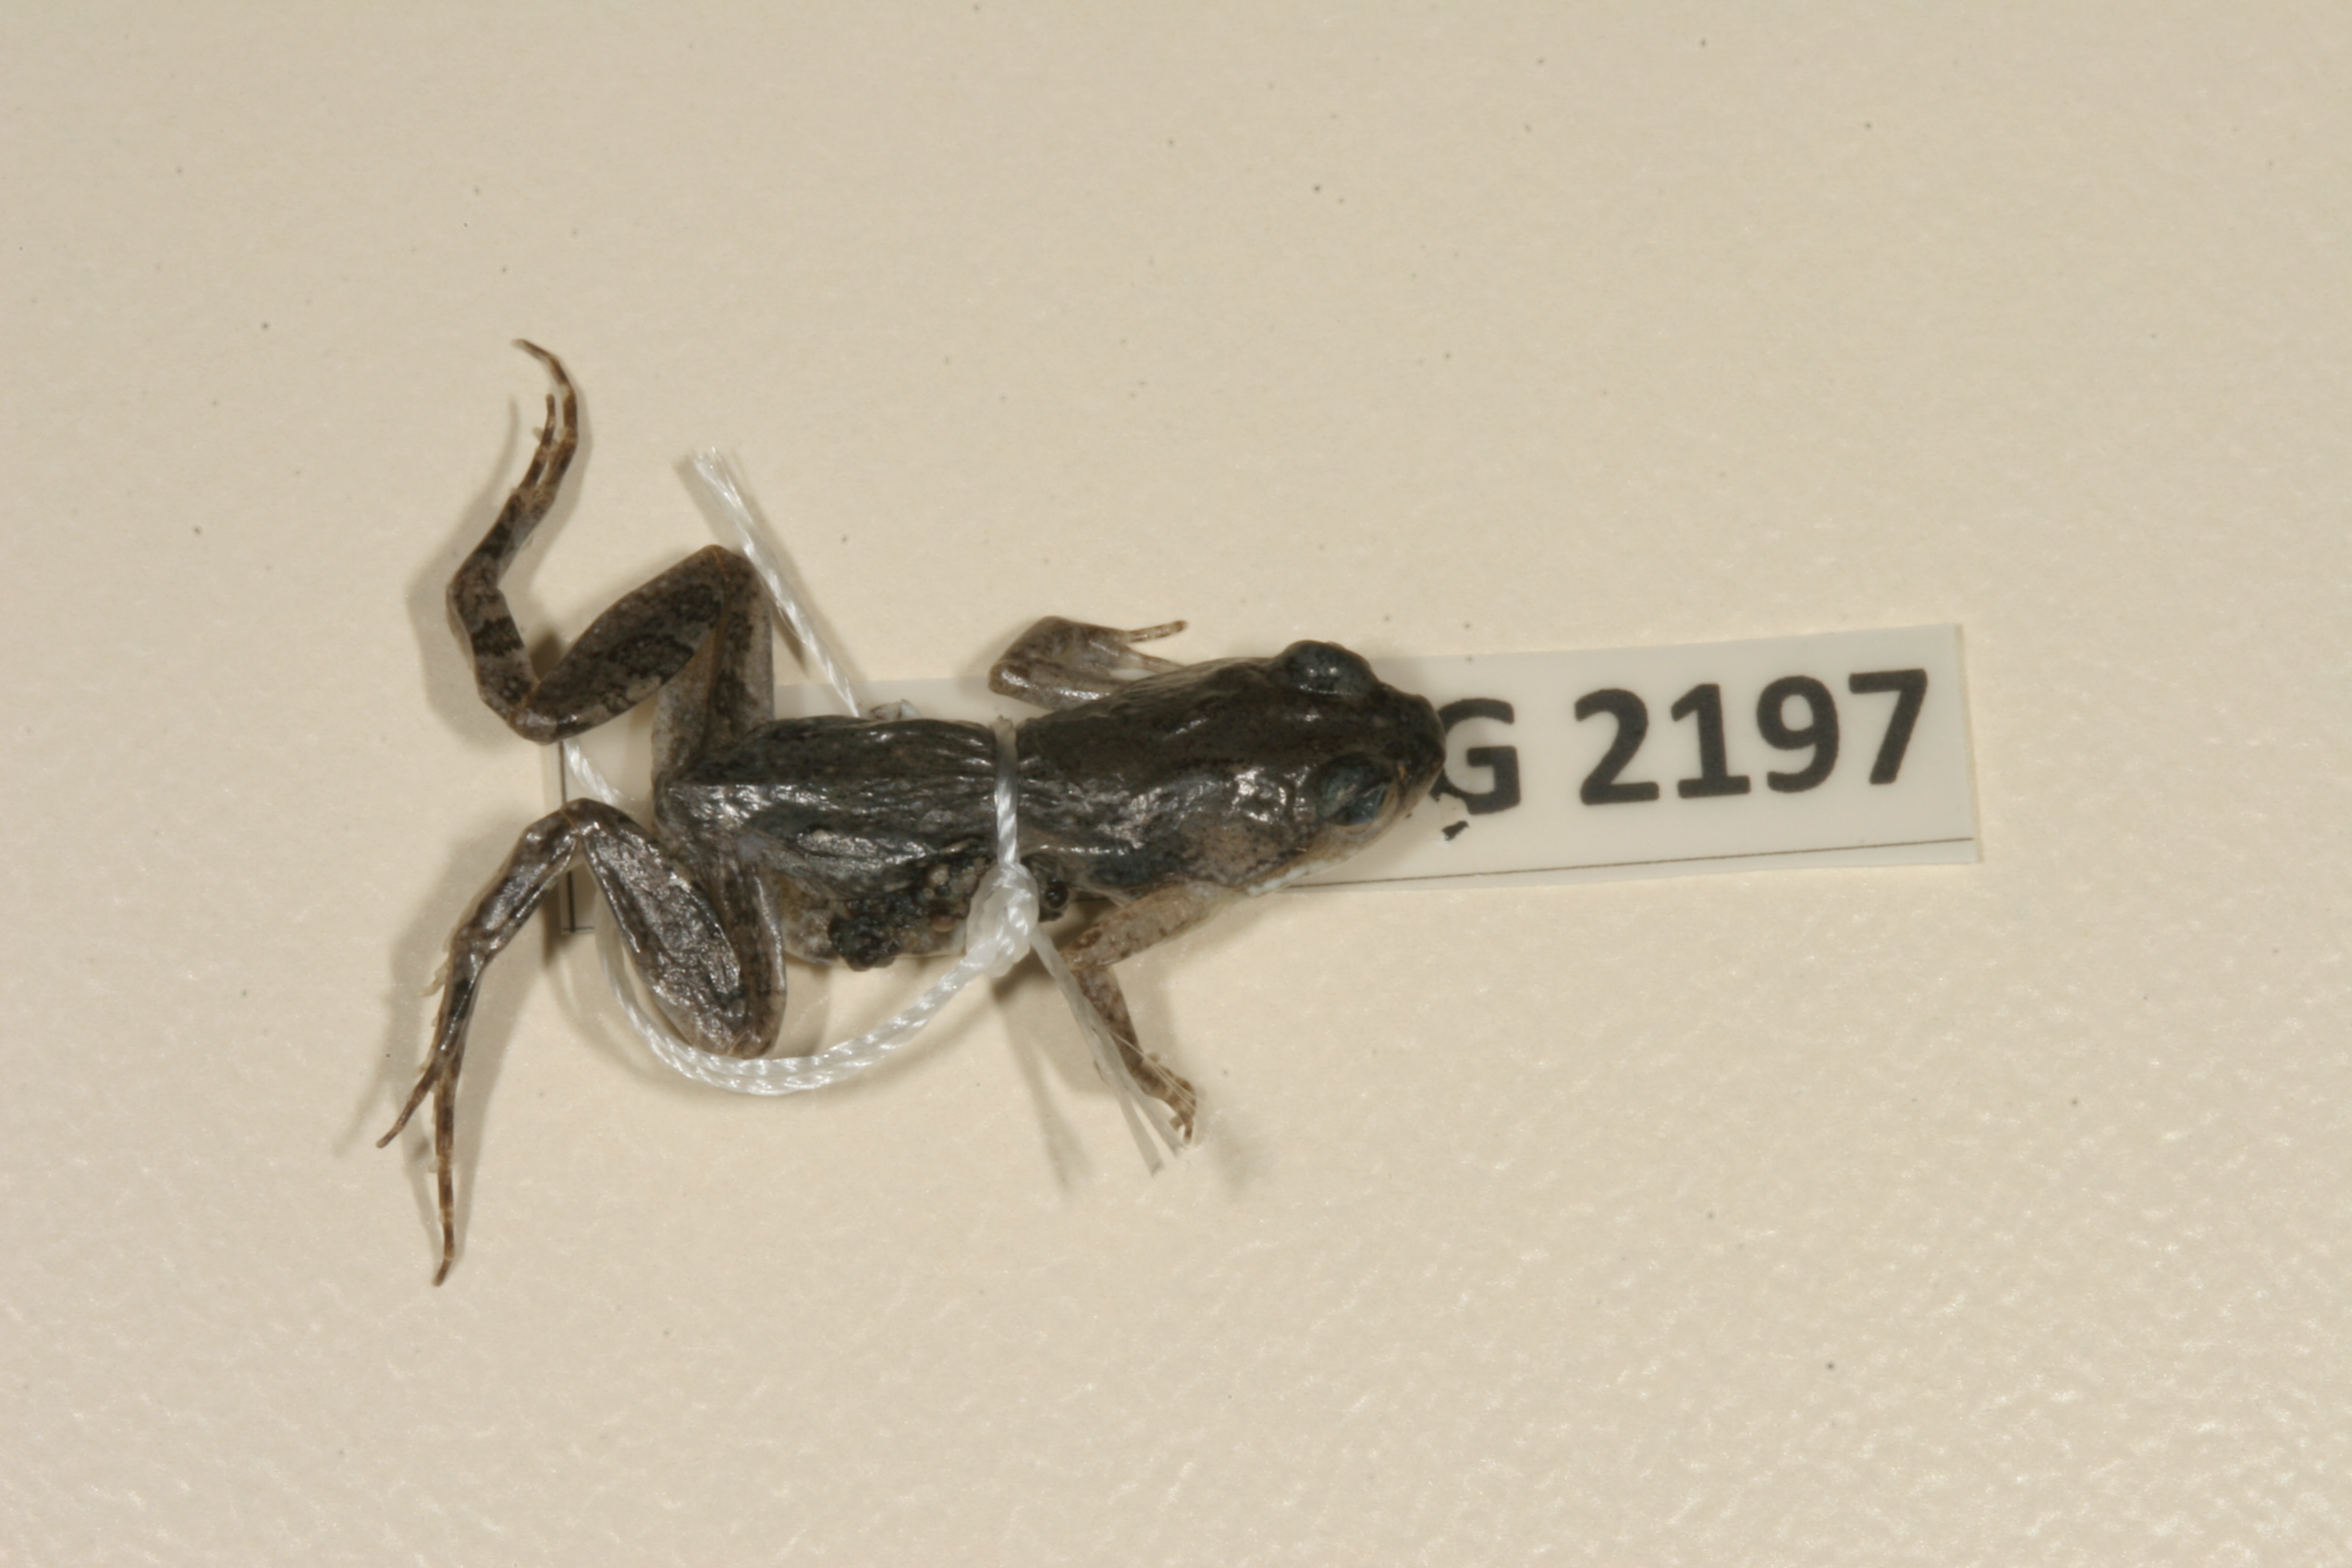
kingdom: Animalia
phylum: Chordata
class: Amphibia
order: Anura
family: Pyxicephalidae
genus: Cacosternum
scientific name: Cacosternum boettgeri
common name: Boettger's frog
